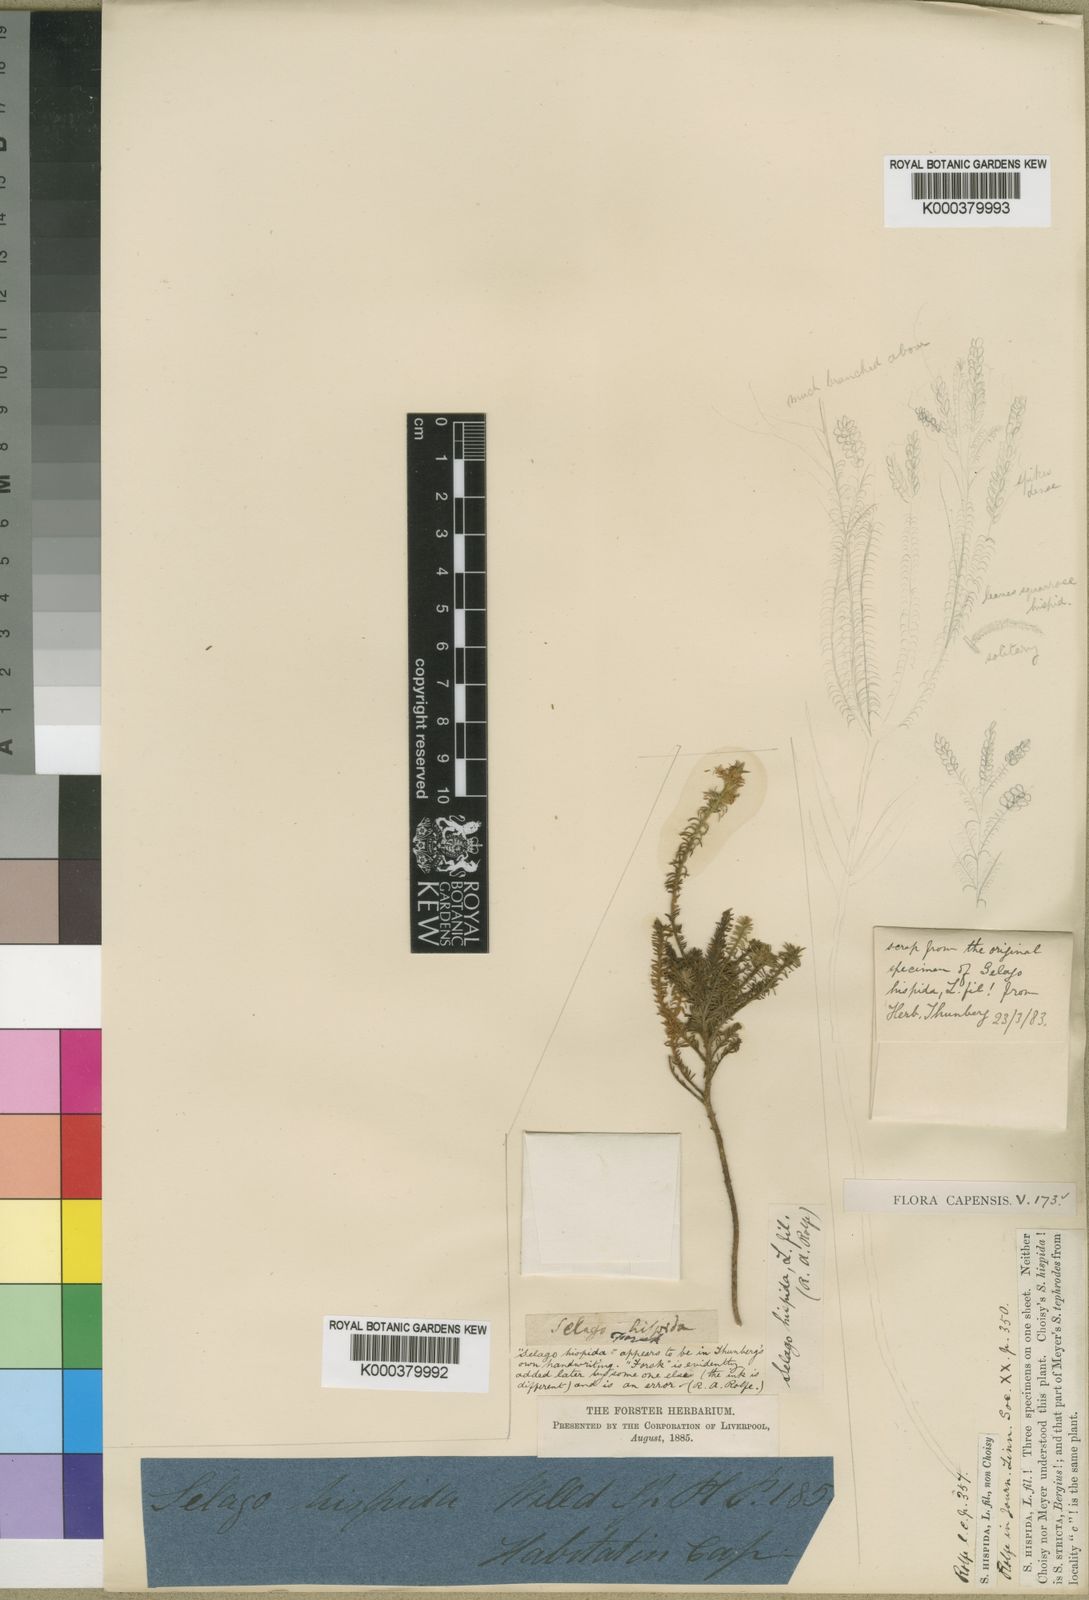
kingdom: Plantae
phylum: Tracheophyta
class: Magnoliopsida
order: Lamiales
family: Scrophulariaceae
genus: Selago
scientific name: Selago hispida
